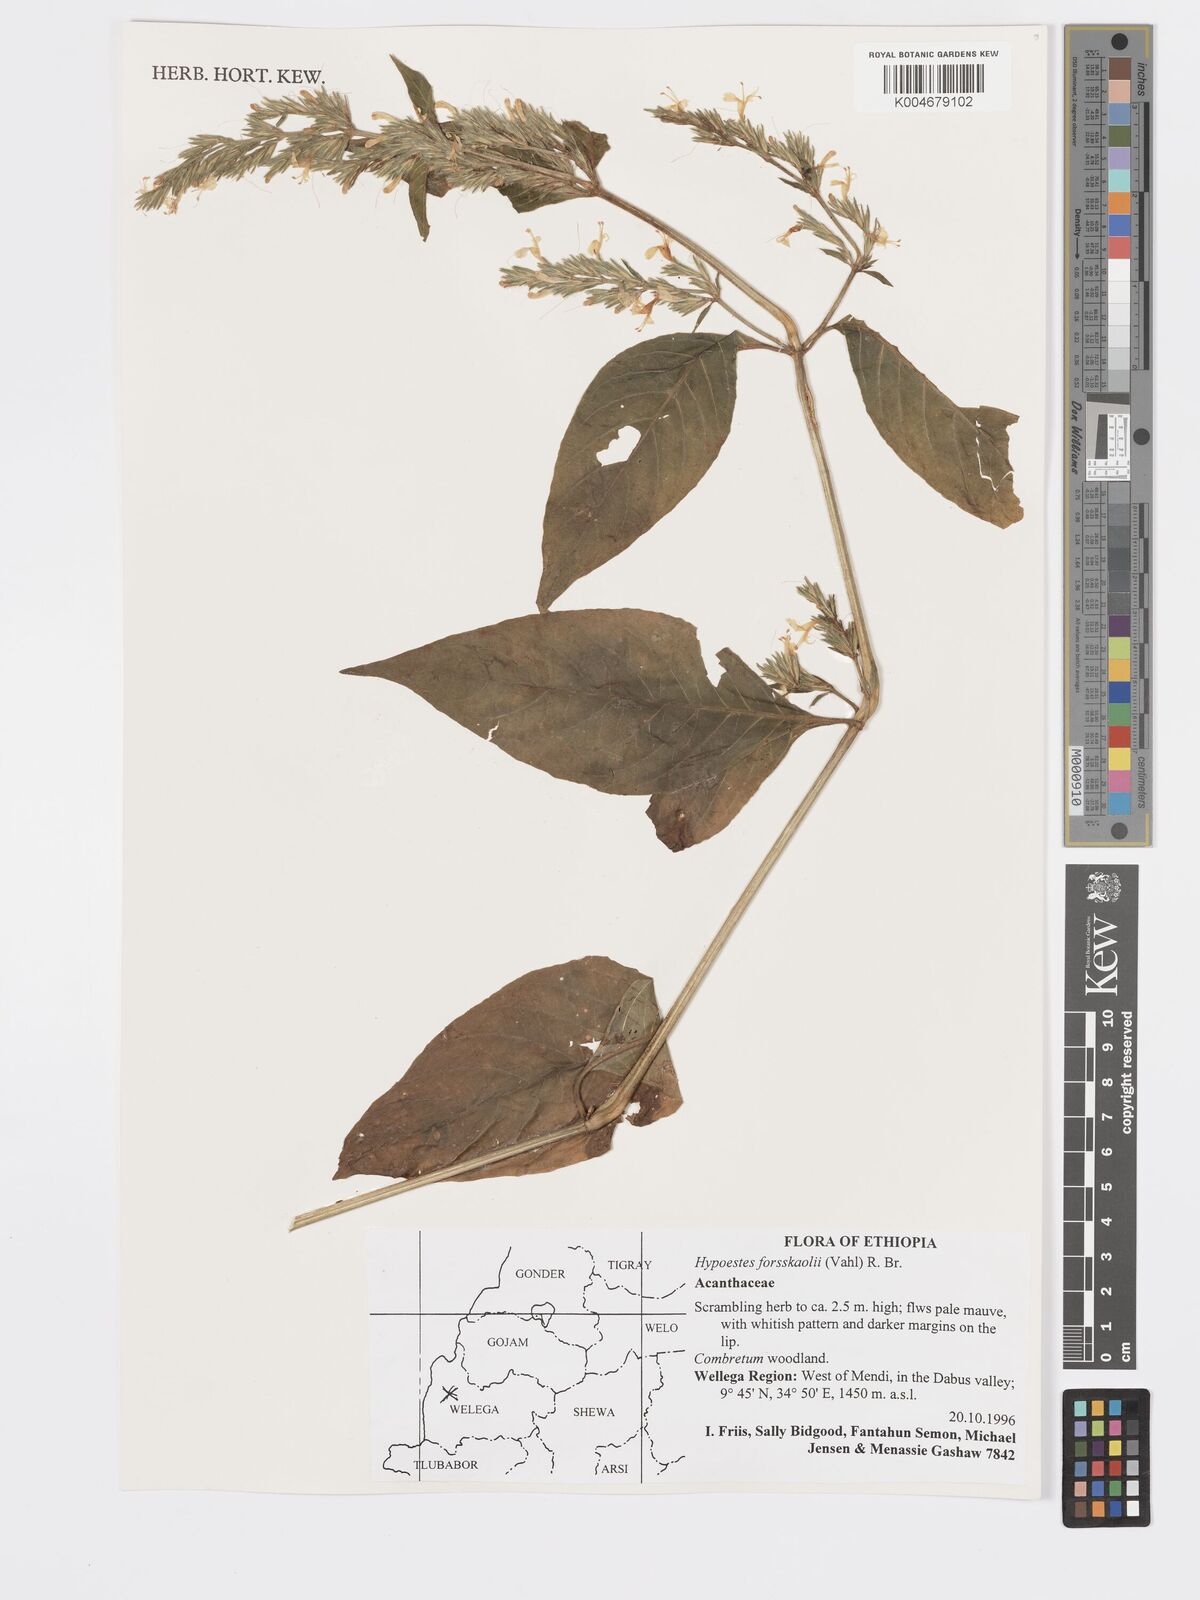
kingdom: Plantae
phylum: Tracheophyta
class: Magnoliopsida
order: Lamiales
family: Acanthaceae
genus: Hypoestes
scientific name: Hypoestes forskaolii
